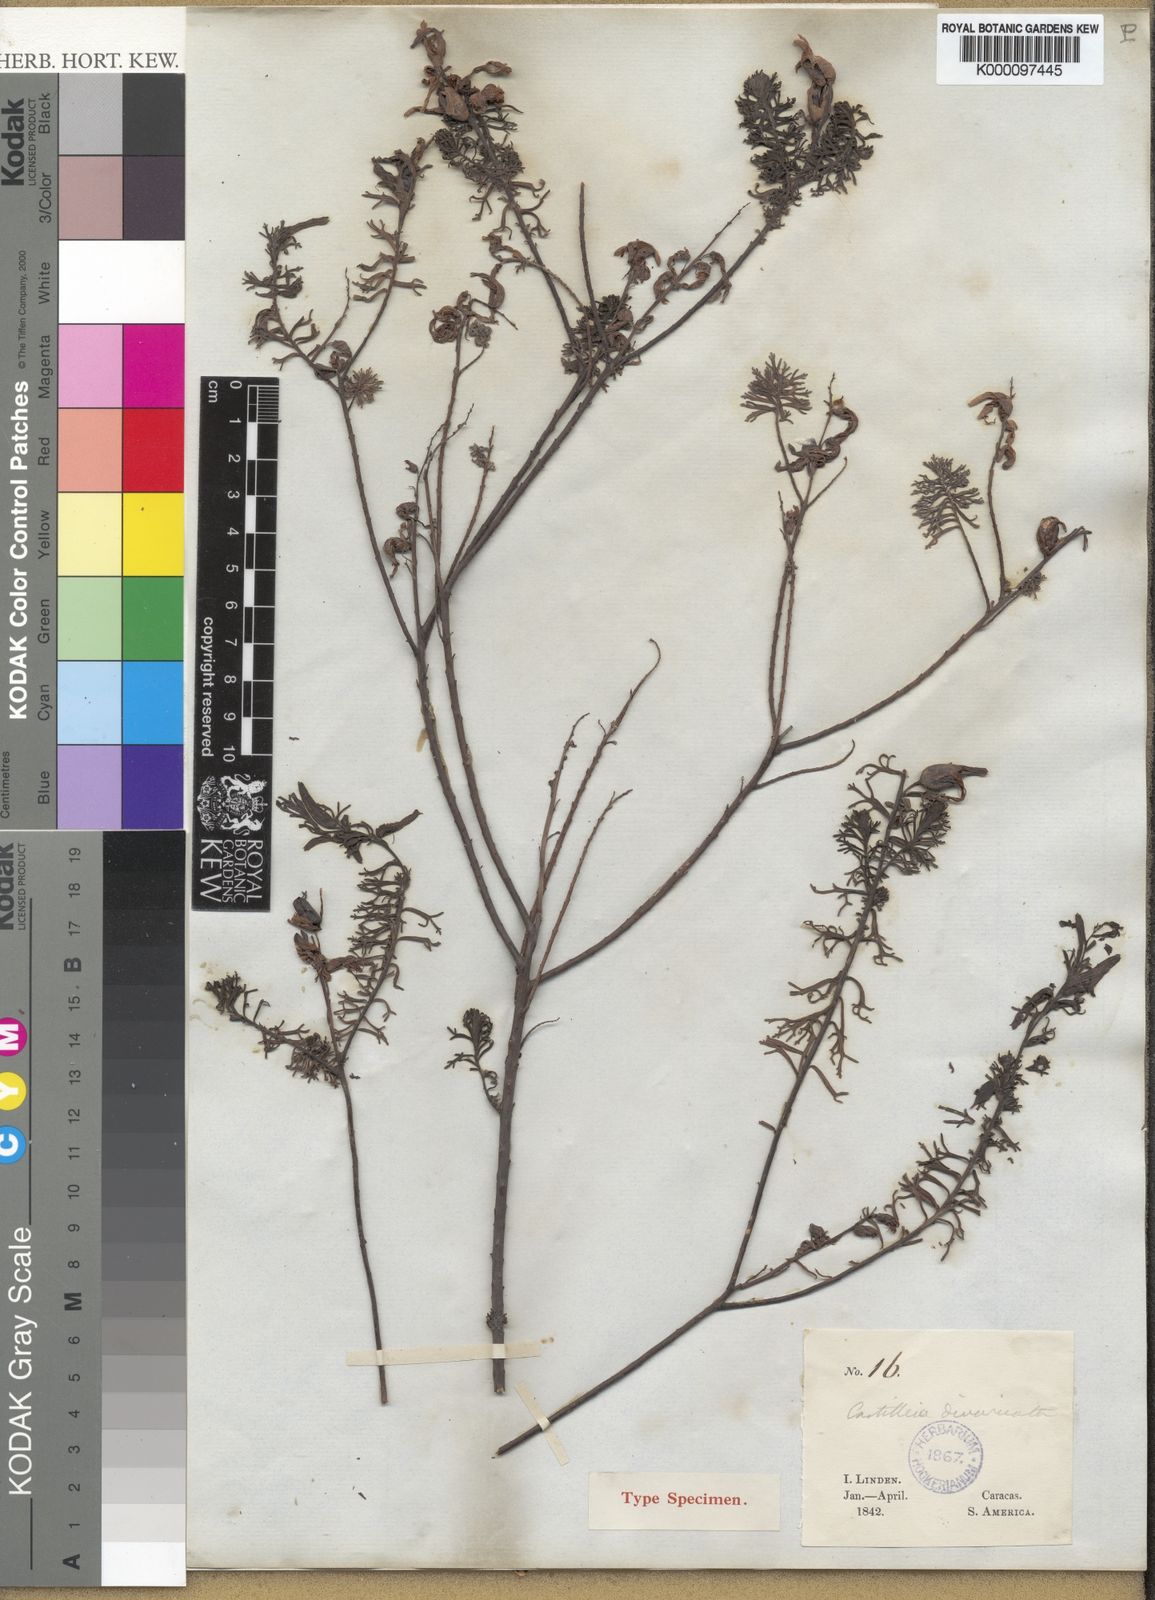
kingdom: Plantae
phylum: Tracheophyta
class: Magnoliopsida
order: Lamiales
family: Orobanchaceae
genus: Castilleja
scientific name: Castilleja fissifolia
